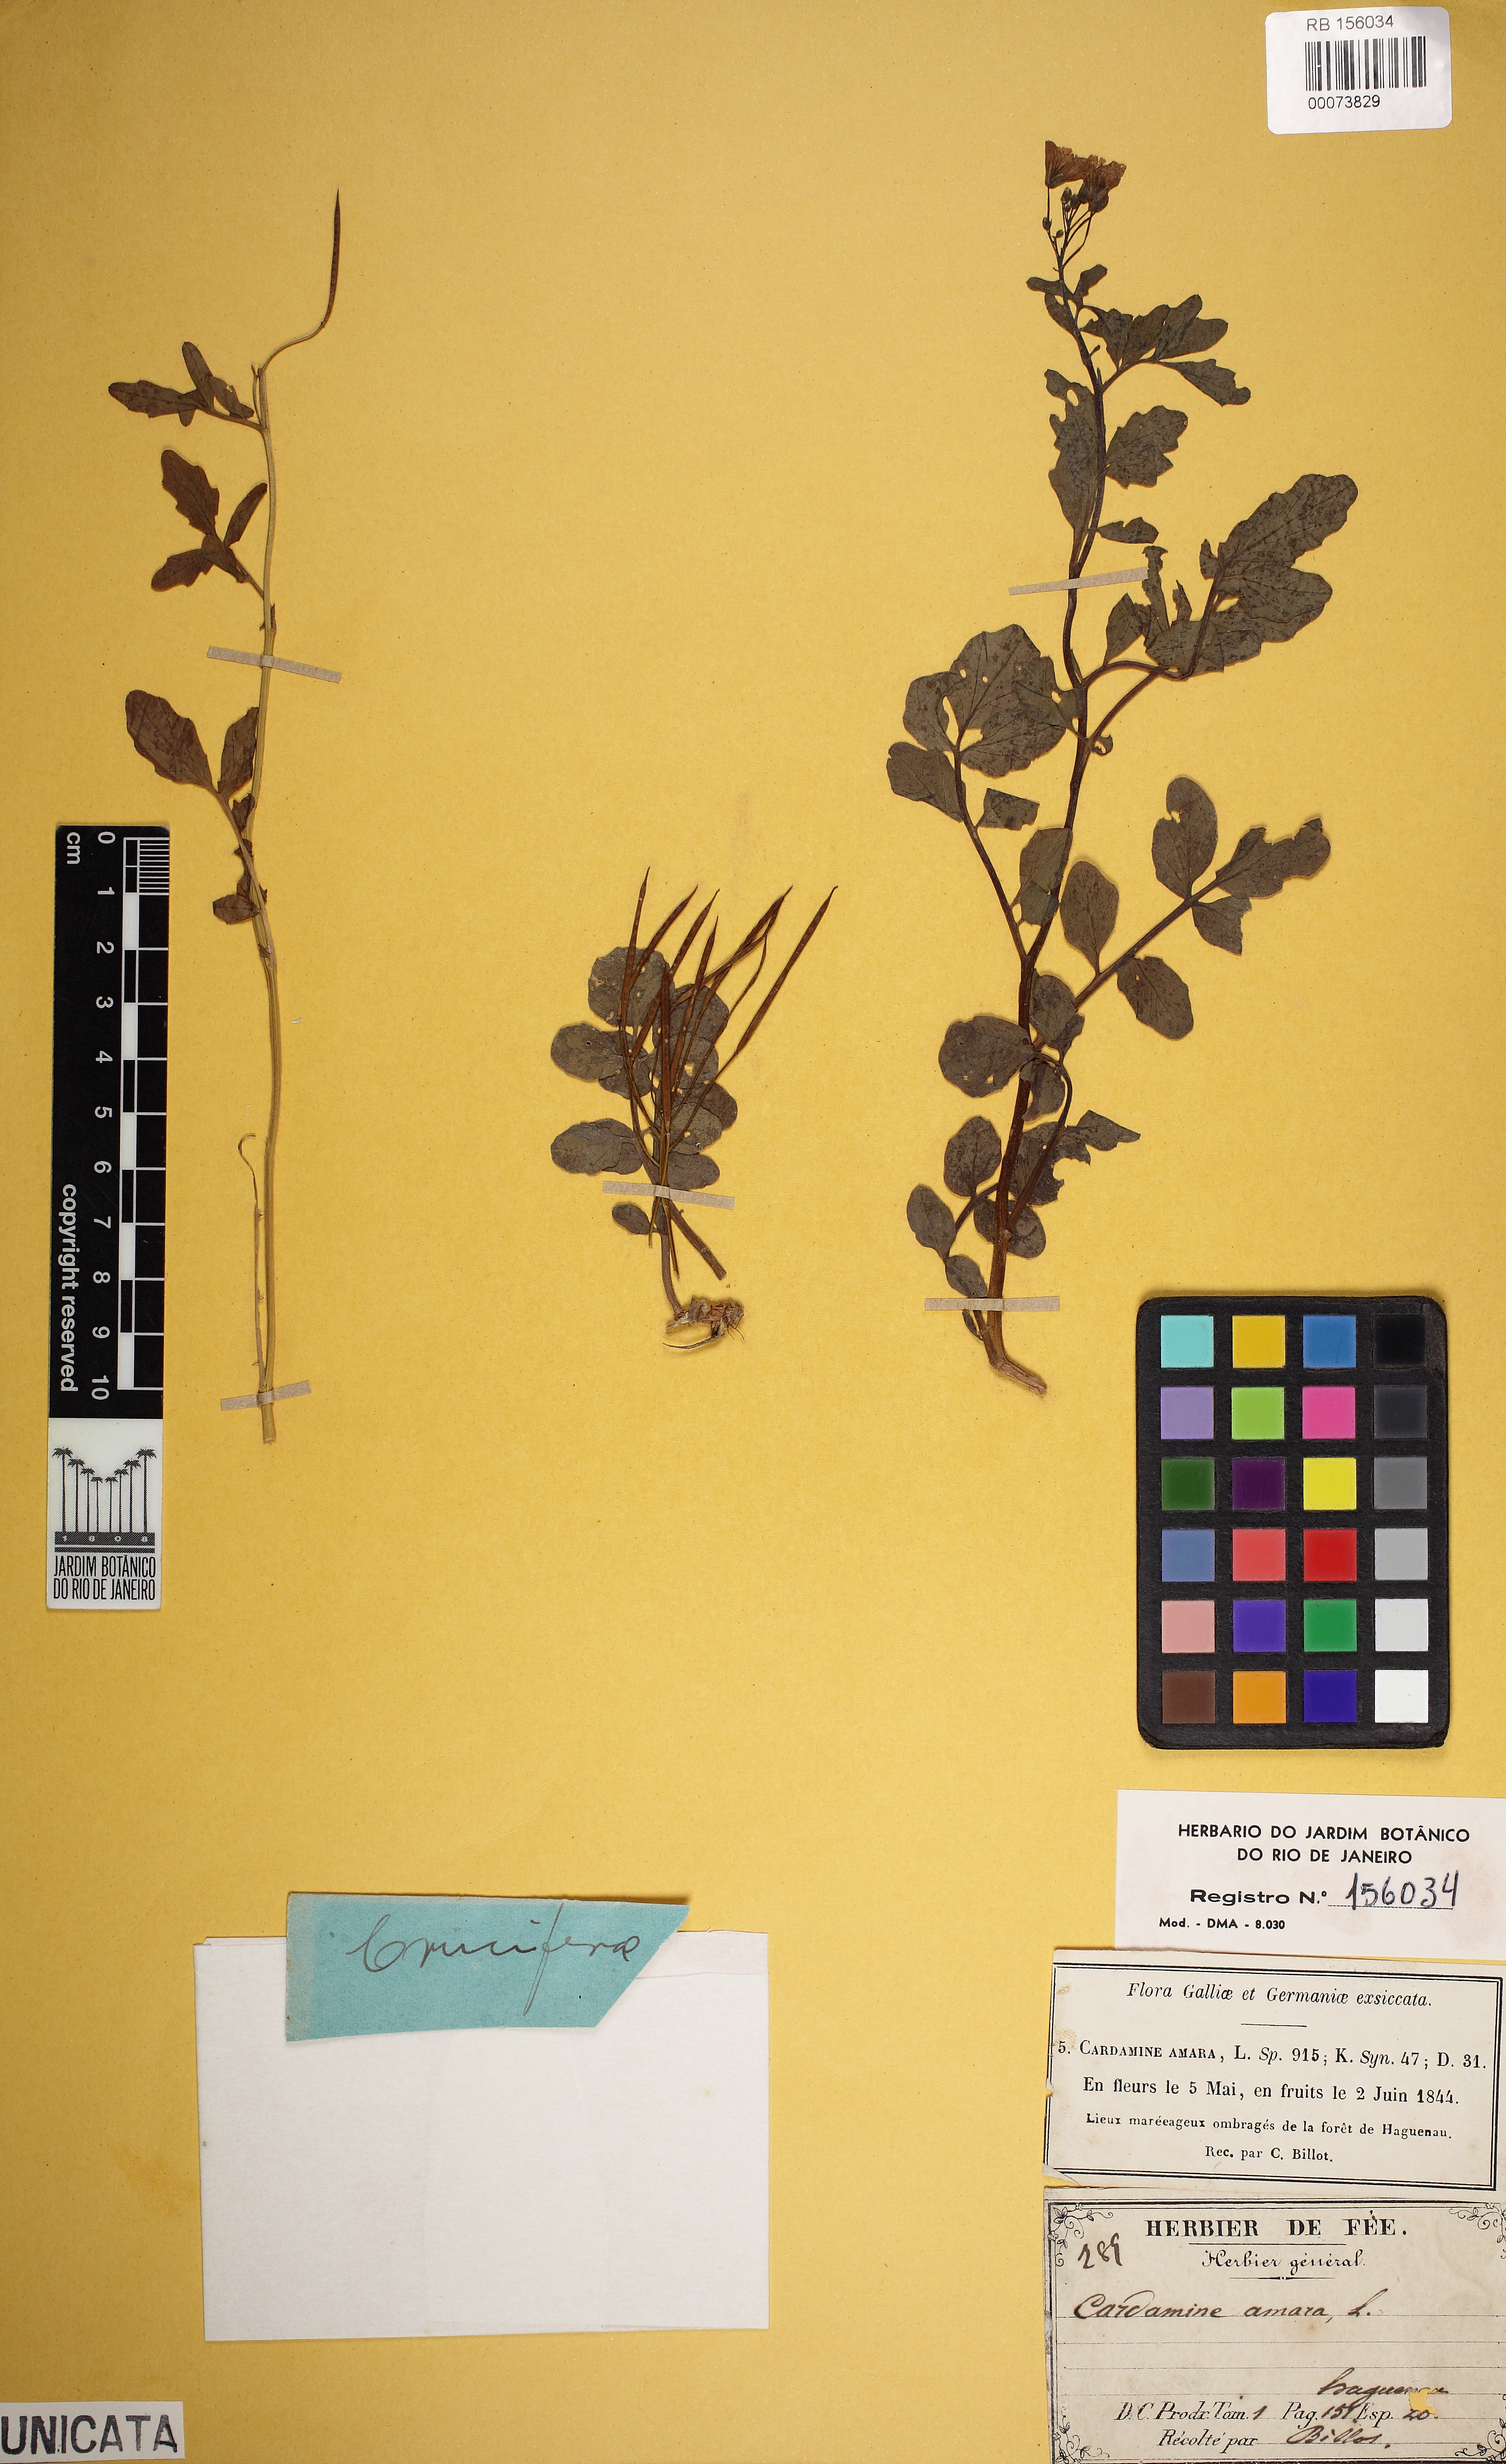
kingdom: Plantae
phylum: Tracheophyta
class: Magnoliopsida
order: Brassicales
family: Brassicaceae
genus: Cardamine
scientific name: Cardamine amara
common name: Large bitter-cress
